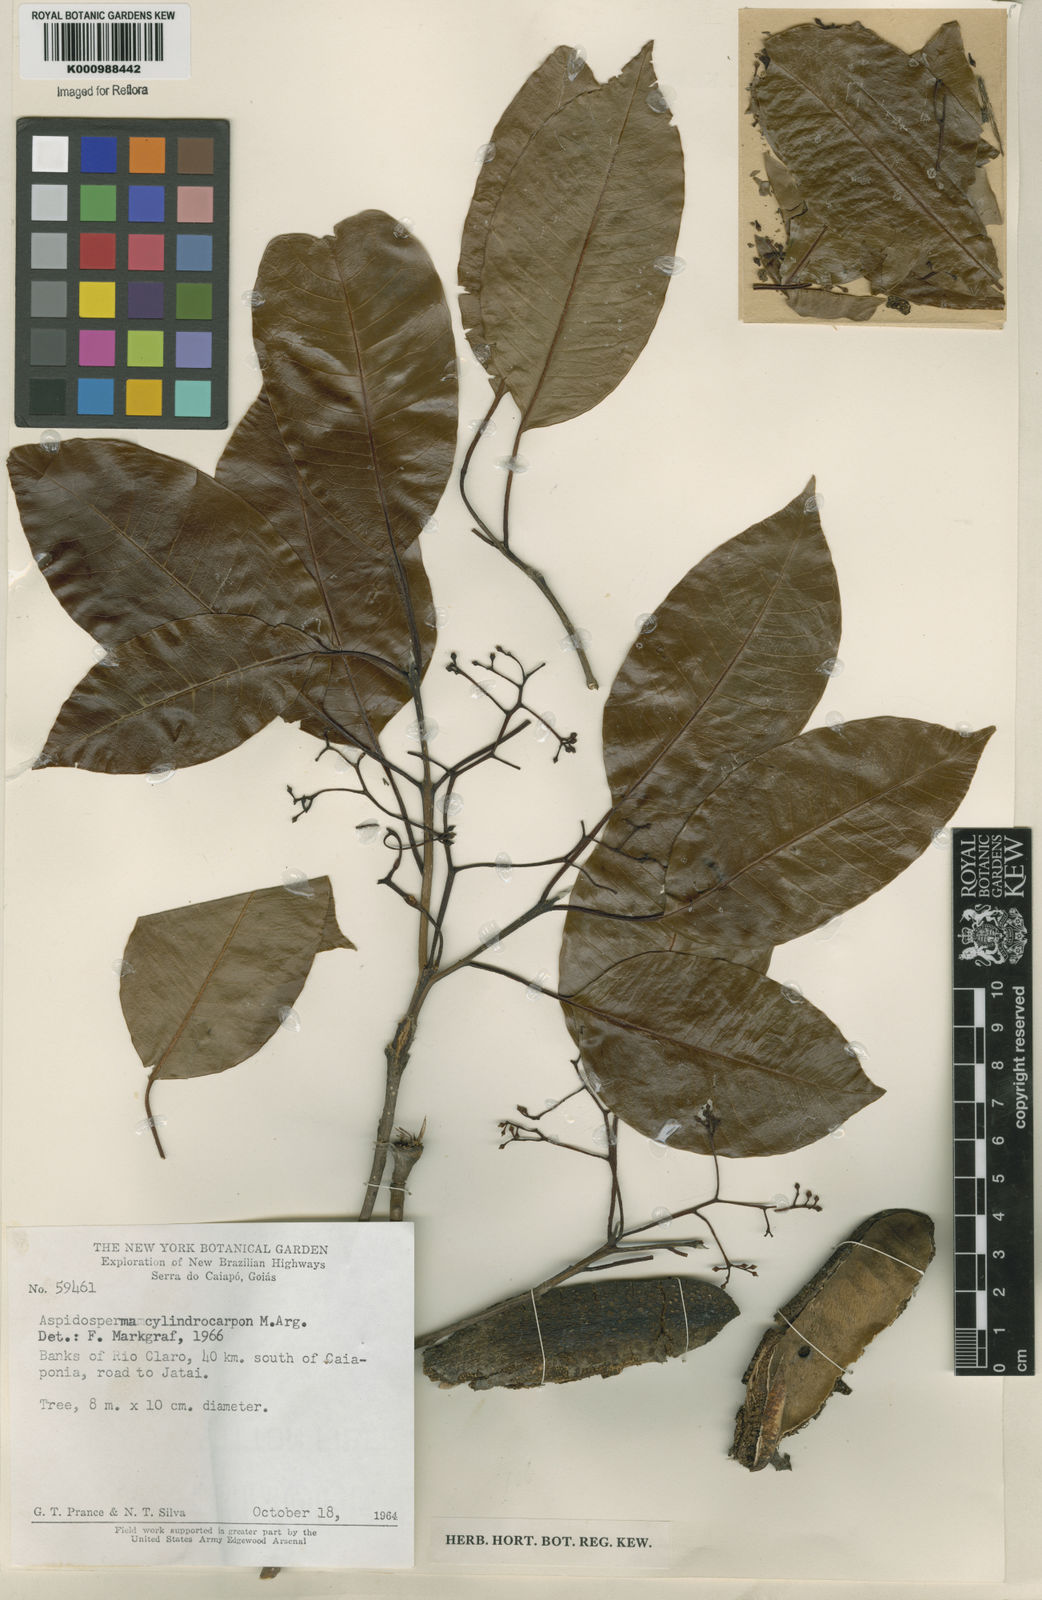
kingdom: Plantae
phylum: Tracheophyta
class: Magnoliopsida
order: Gentianales
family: Apocynaceae
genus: Aspidosperma
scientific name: Aspidosperma
